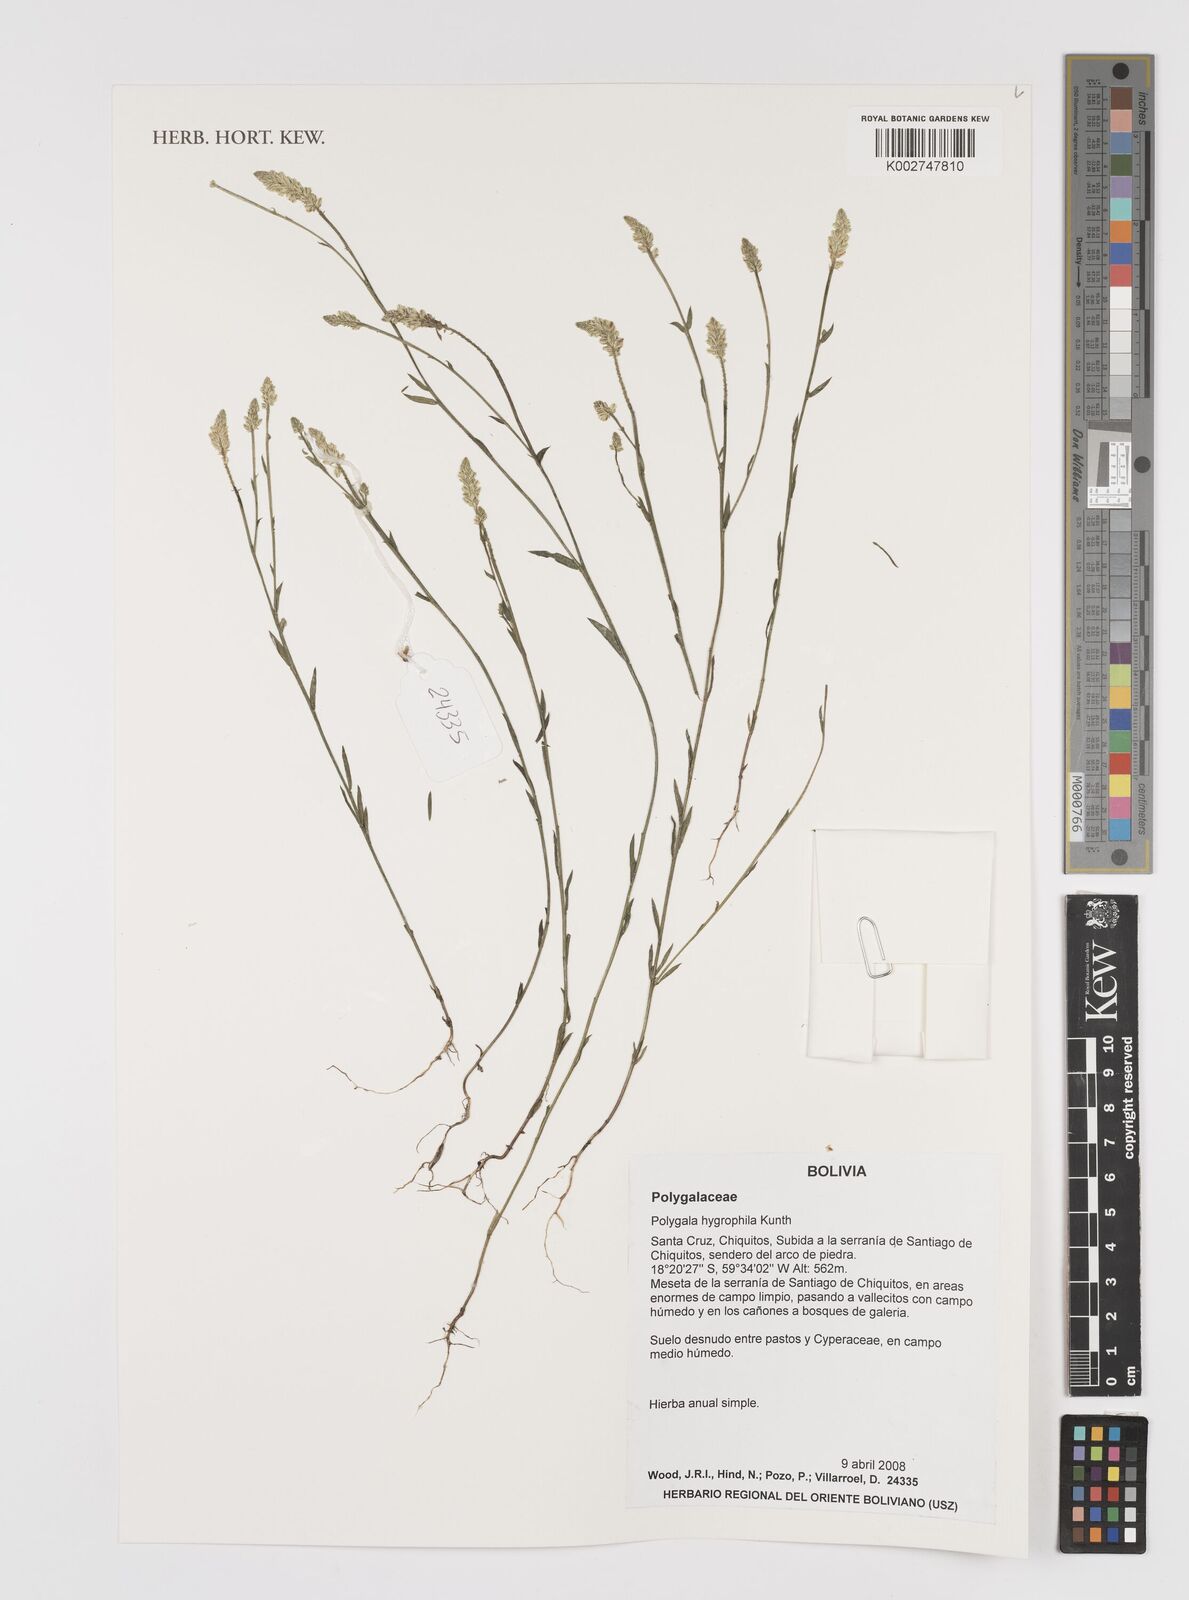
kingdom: Plantae
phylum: Tracheophyta
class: Magnoliopsida
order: Fabales
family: Polygalaceae
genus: Polygala
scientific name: Polygala hygrophila
